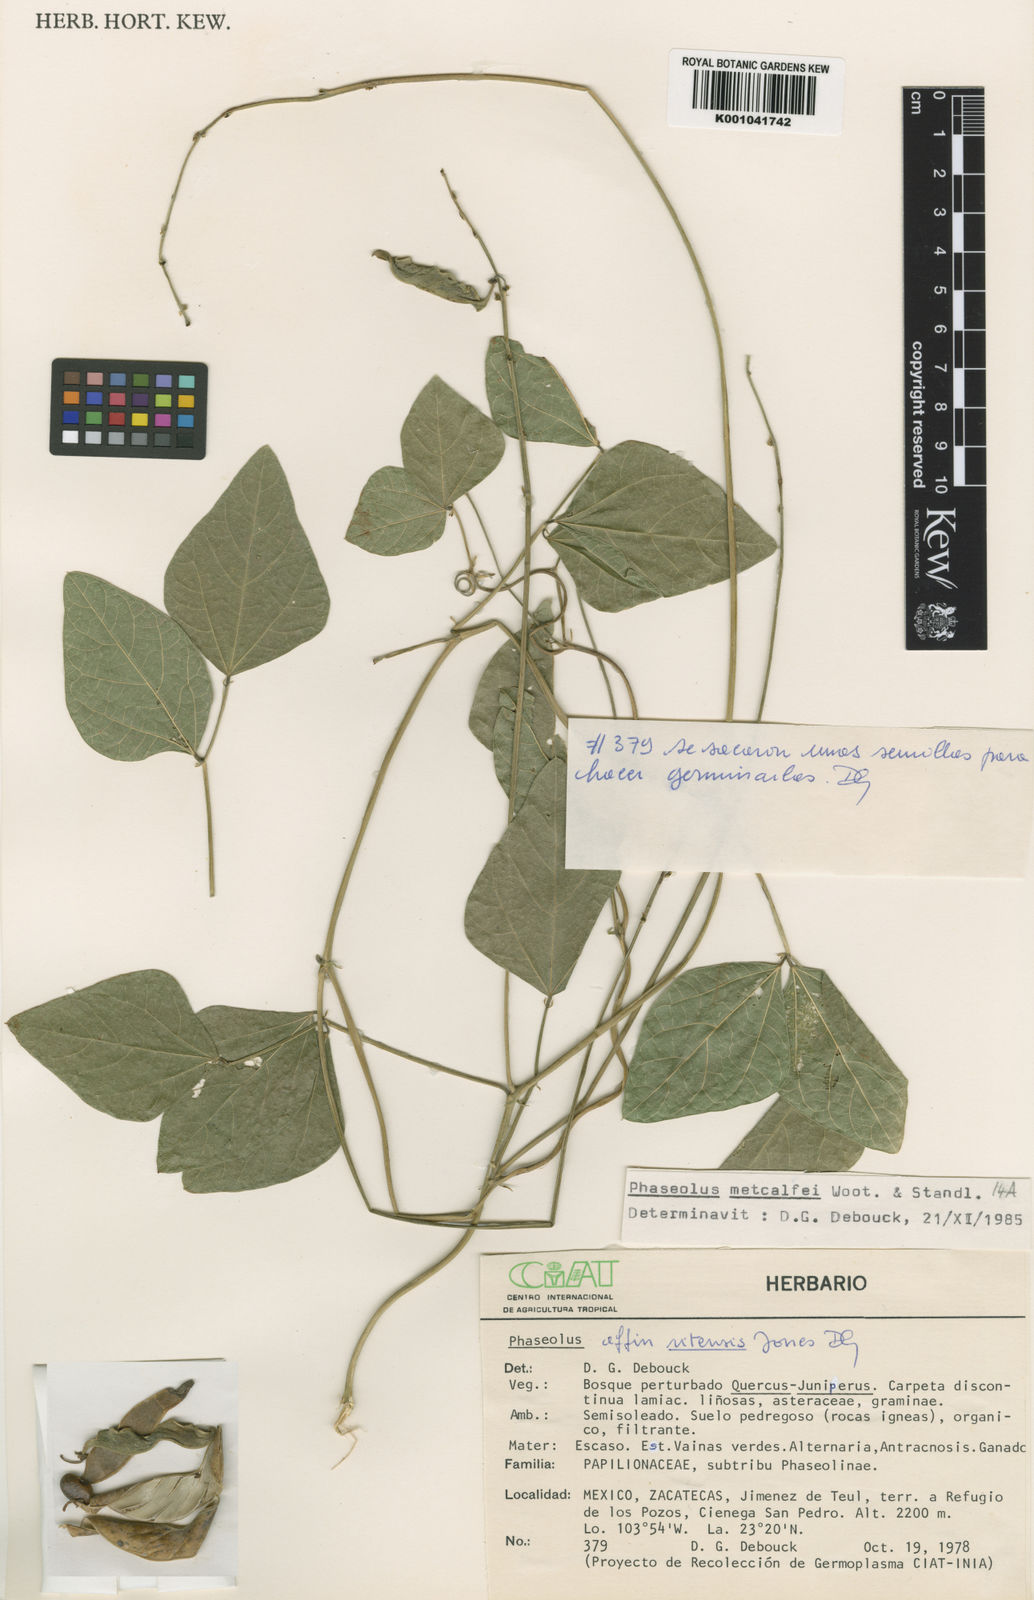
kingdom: Plantae
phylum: Tracheophyta
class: Magnoliopsida
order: Fabales
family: Fabaceae
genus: Phaseolus
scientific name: Phaseolus
